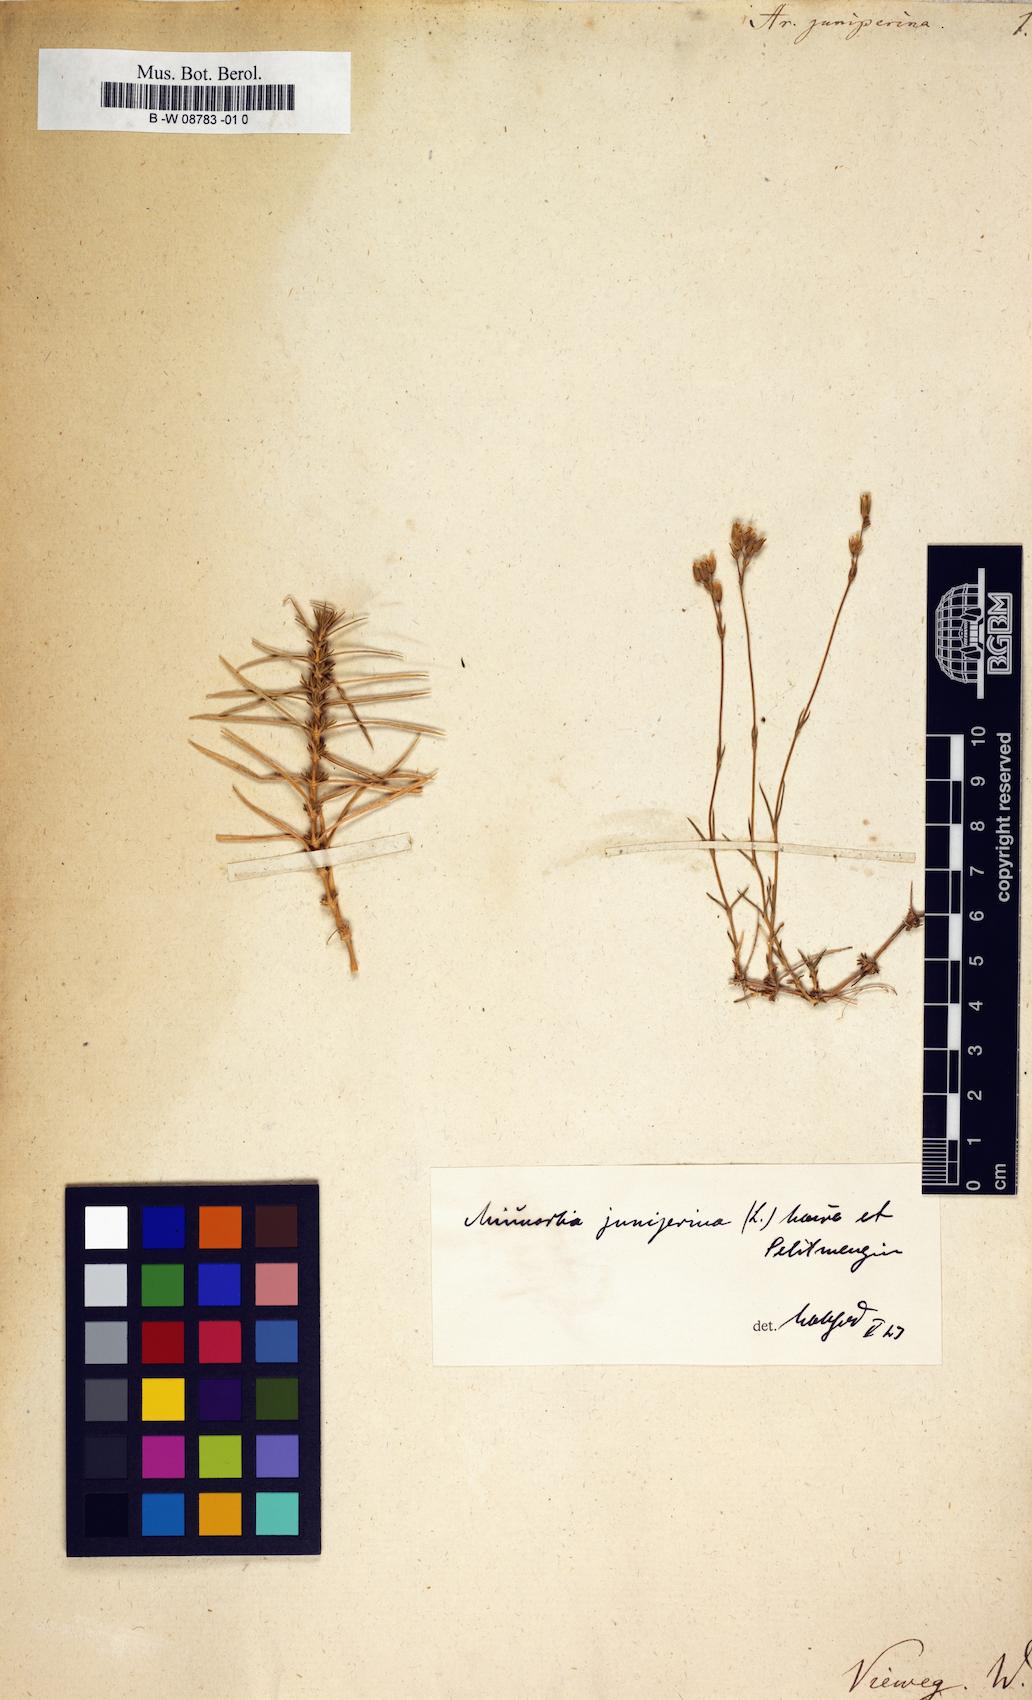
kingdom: Plantae
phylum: Tracheophyta
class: Magnoliopsida
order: Caryophyllales
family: Caryophyllaceae
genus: Sabulina
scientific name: Sabulina juniperina
